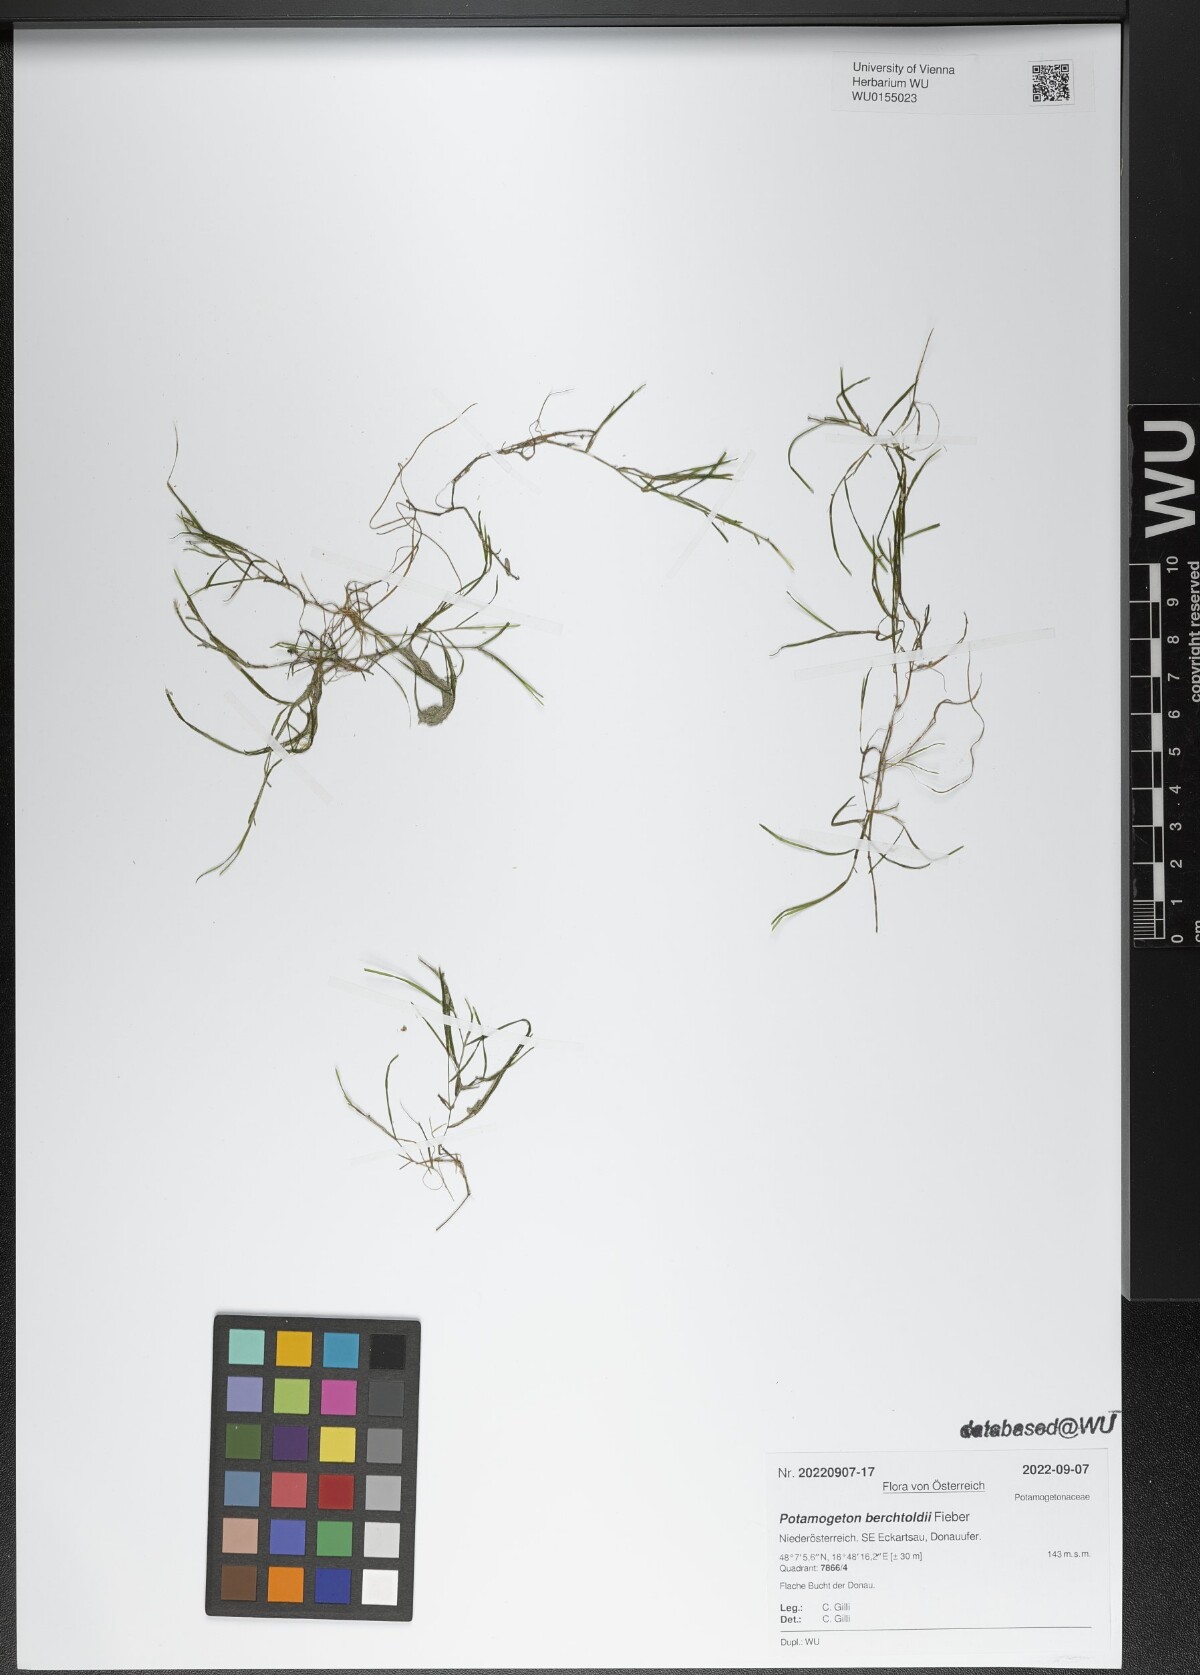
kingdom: Plantae
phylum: Tracheophyta
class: Liliopsida
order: Alismatales
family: Potamogetonaceae
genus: Potamogeton
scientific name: Potamogeton berchtoldii
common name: Small pondweed
